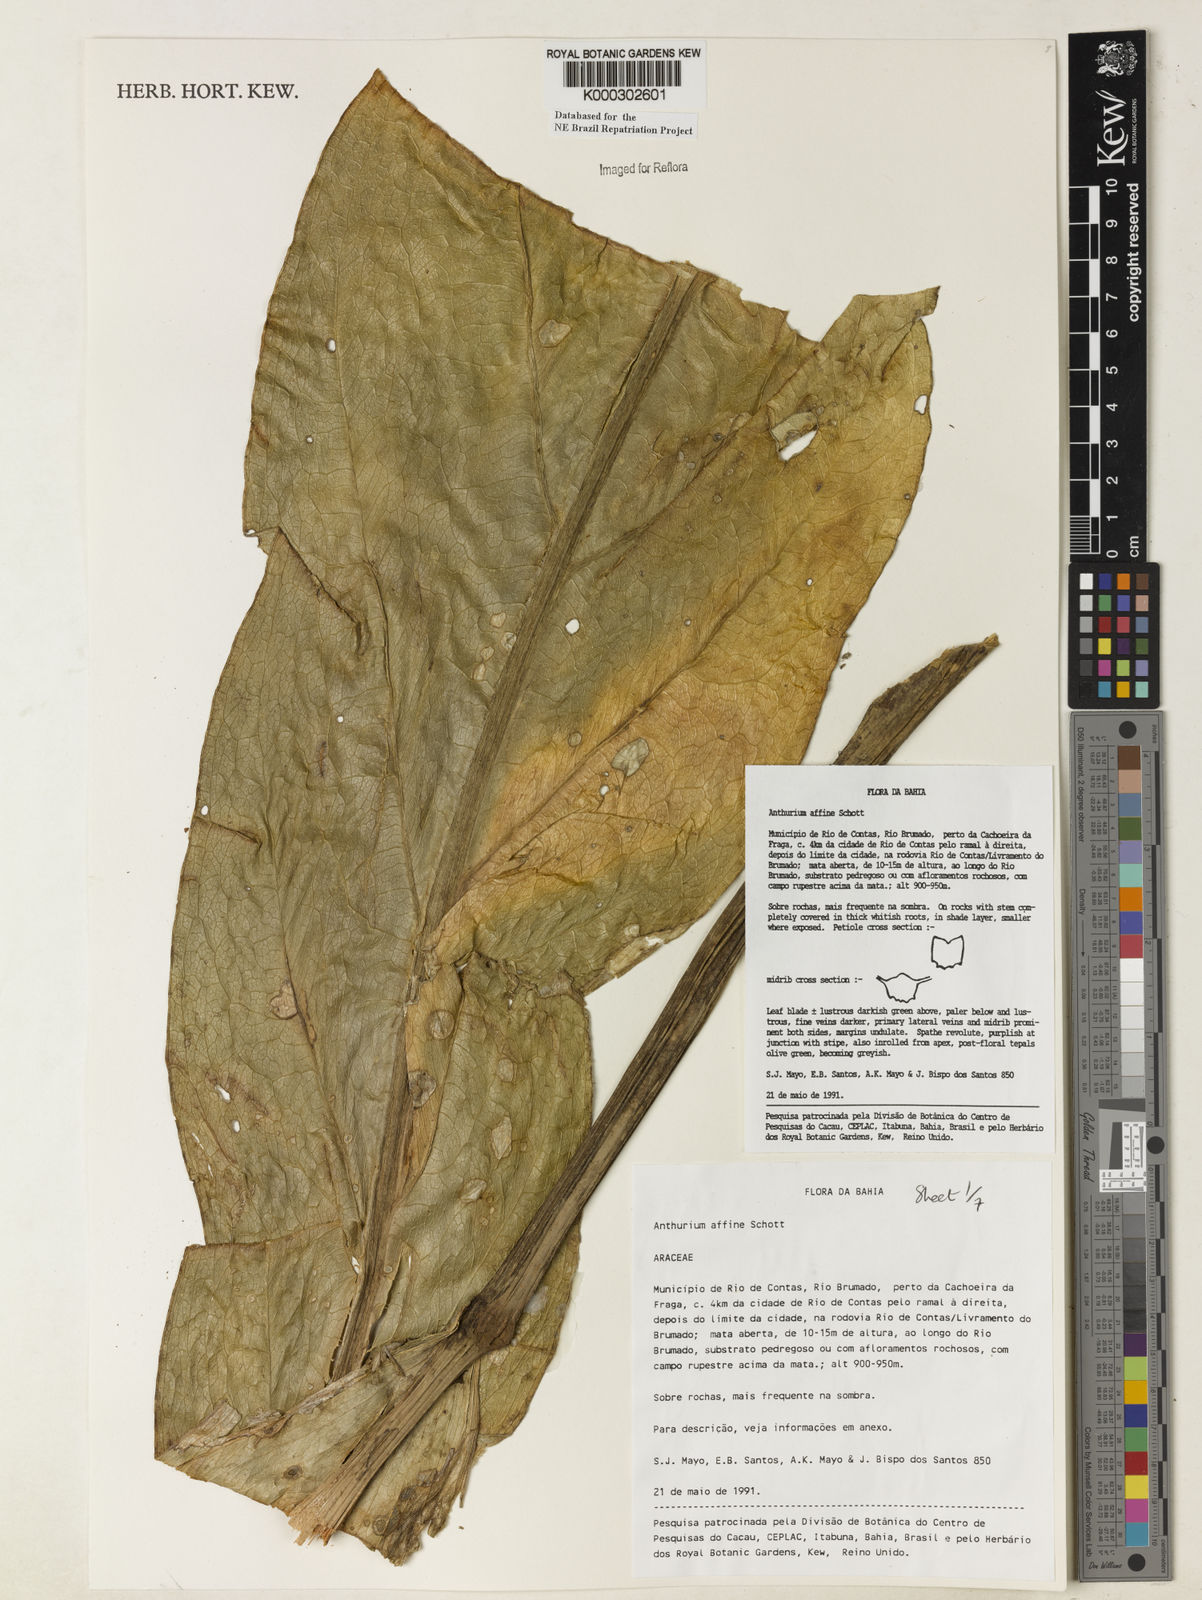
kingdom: Plantae
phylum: Tracheophyta
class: Liliopsida
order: Alismatales
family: Araceae
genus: Anthurium
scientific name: Anthurium affine
